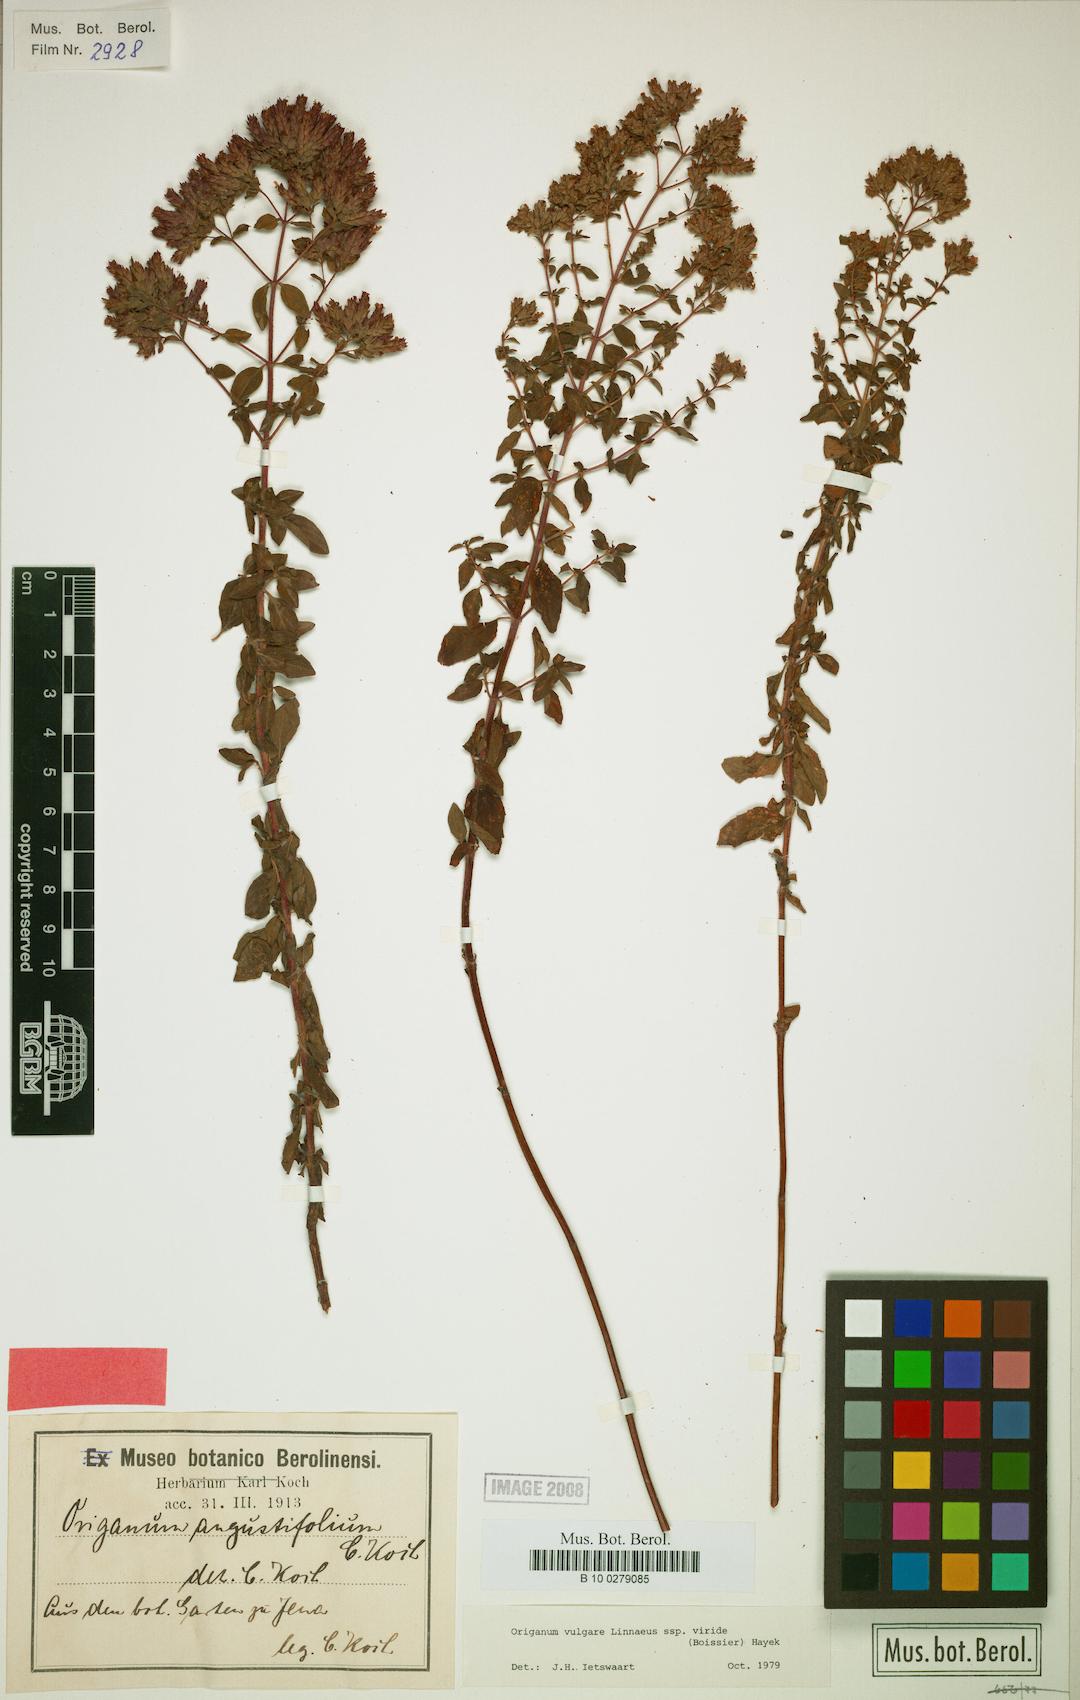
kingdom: Plantae
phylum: Tracheophyta
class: Magnoliopsida
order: Lamiales
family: Lamiaceae
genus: Origanum
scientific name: Origanum vulgare
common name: Wild marjoram
